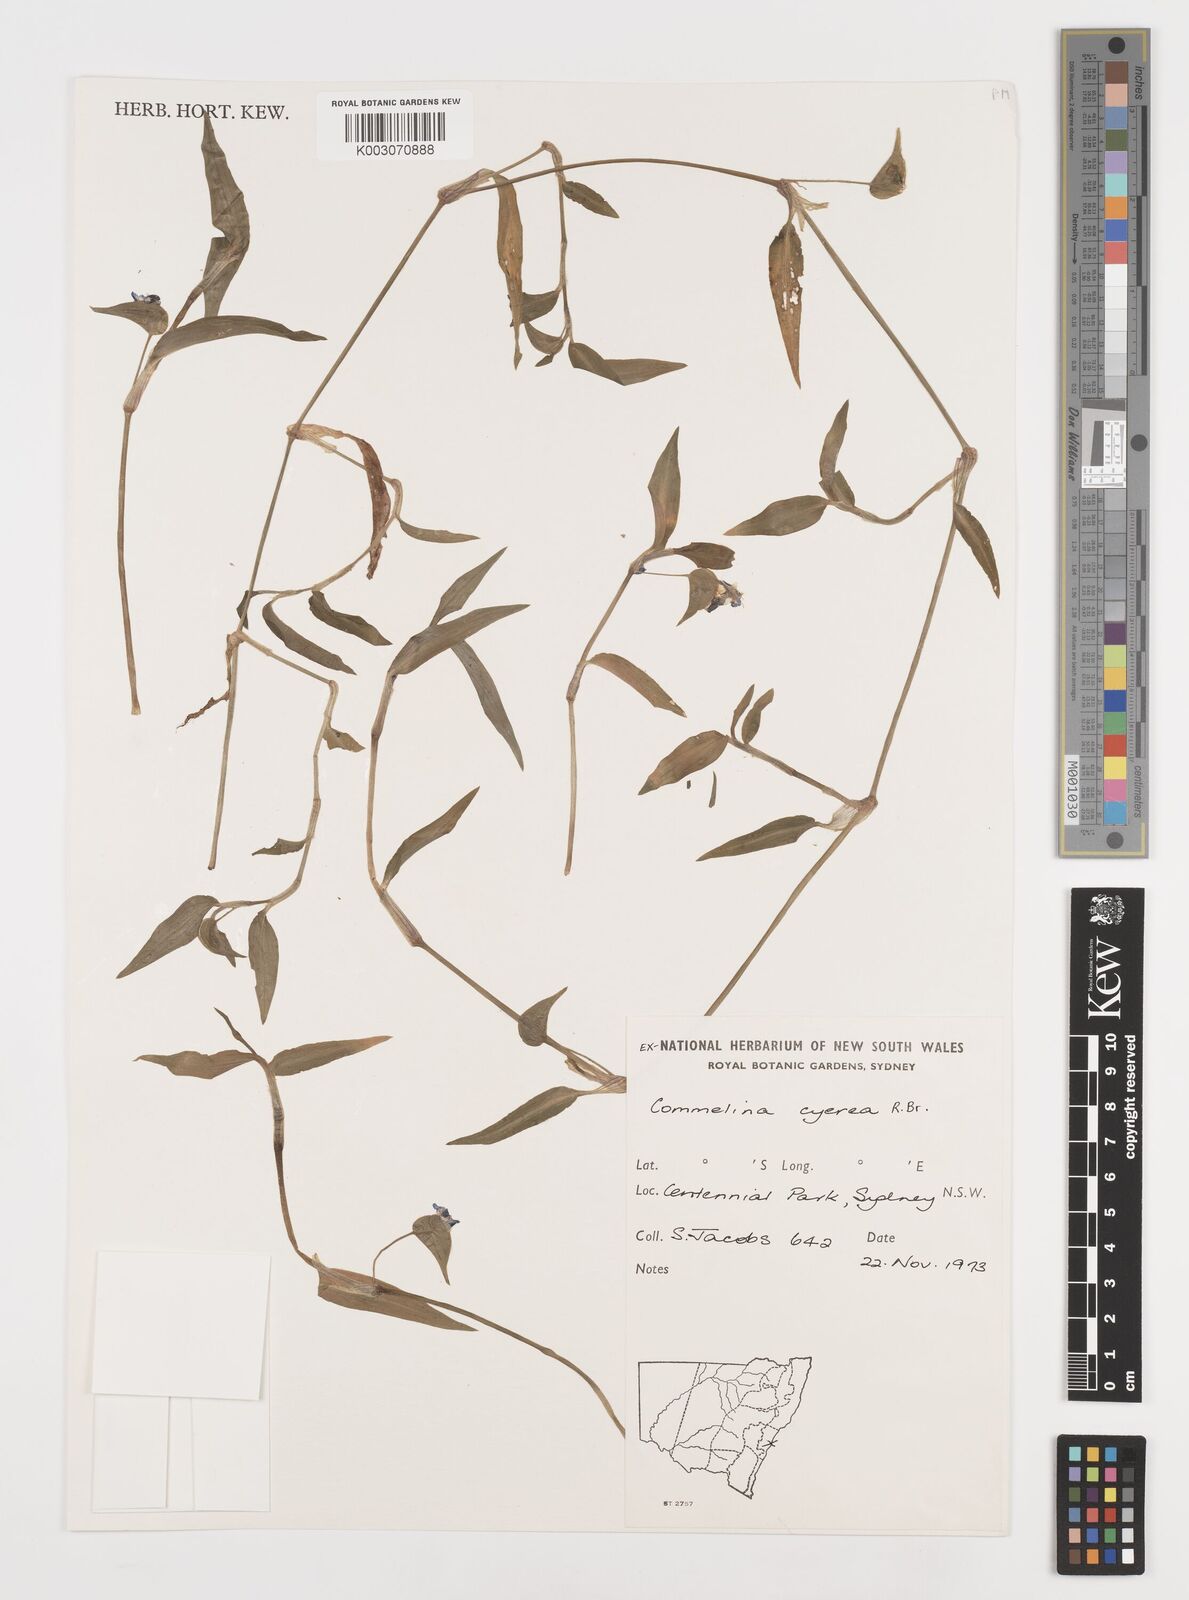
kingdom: Plantae
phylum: Tracheophyta
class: Liliopsida
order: Commelinales
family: Commelinaceae
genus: Commelina
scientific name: Commelina cyanea
